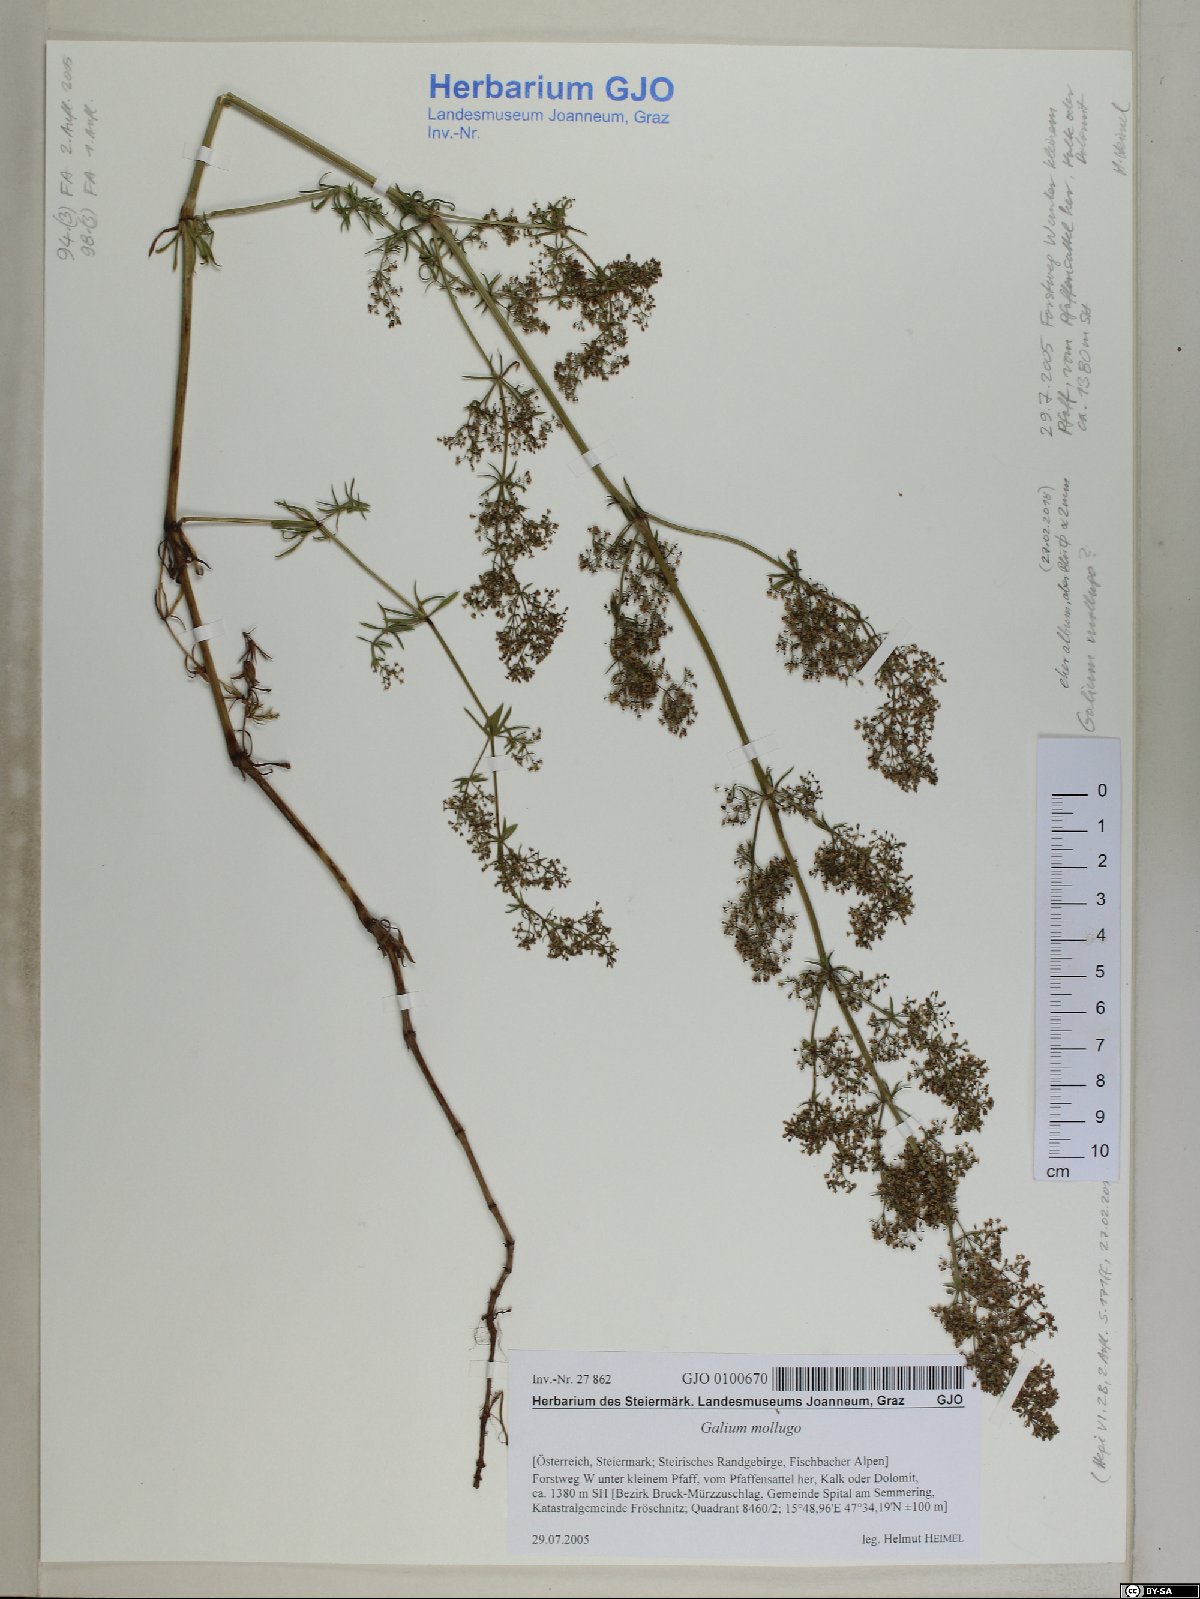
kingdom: Plantae
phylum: Tracheophyta
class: Magnoliopsida
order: Gentianales
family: Rubiaceae
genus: Galium
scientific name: Galium mollugo
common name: Hedge bedstraw
